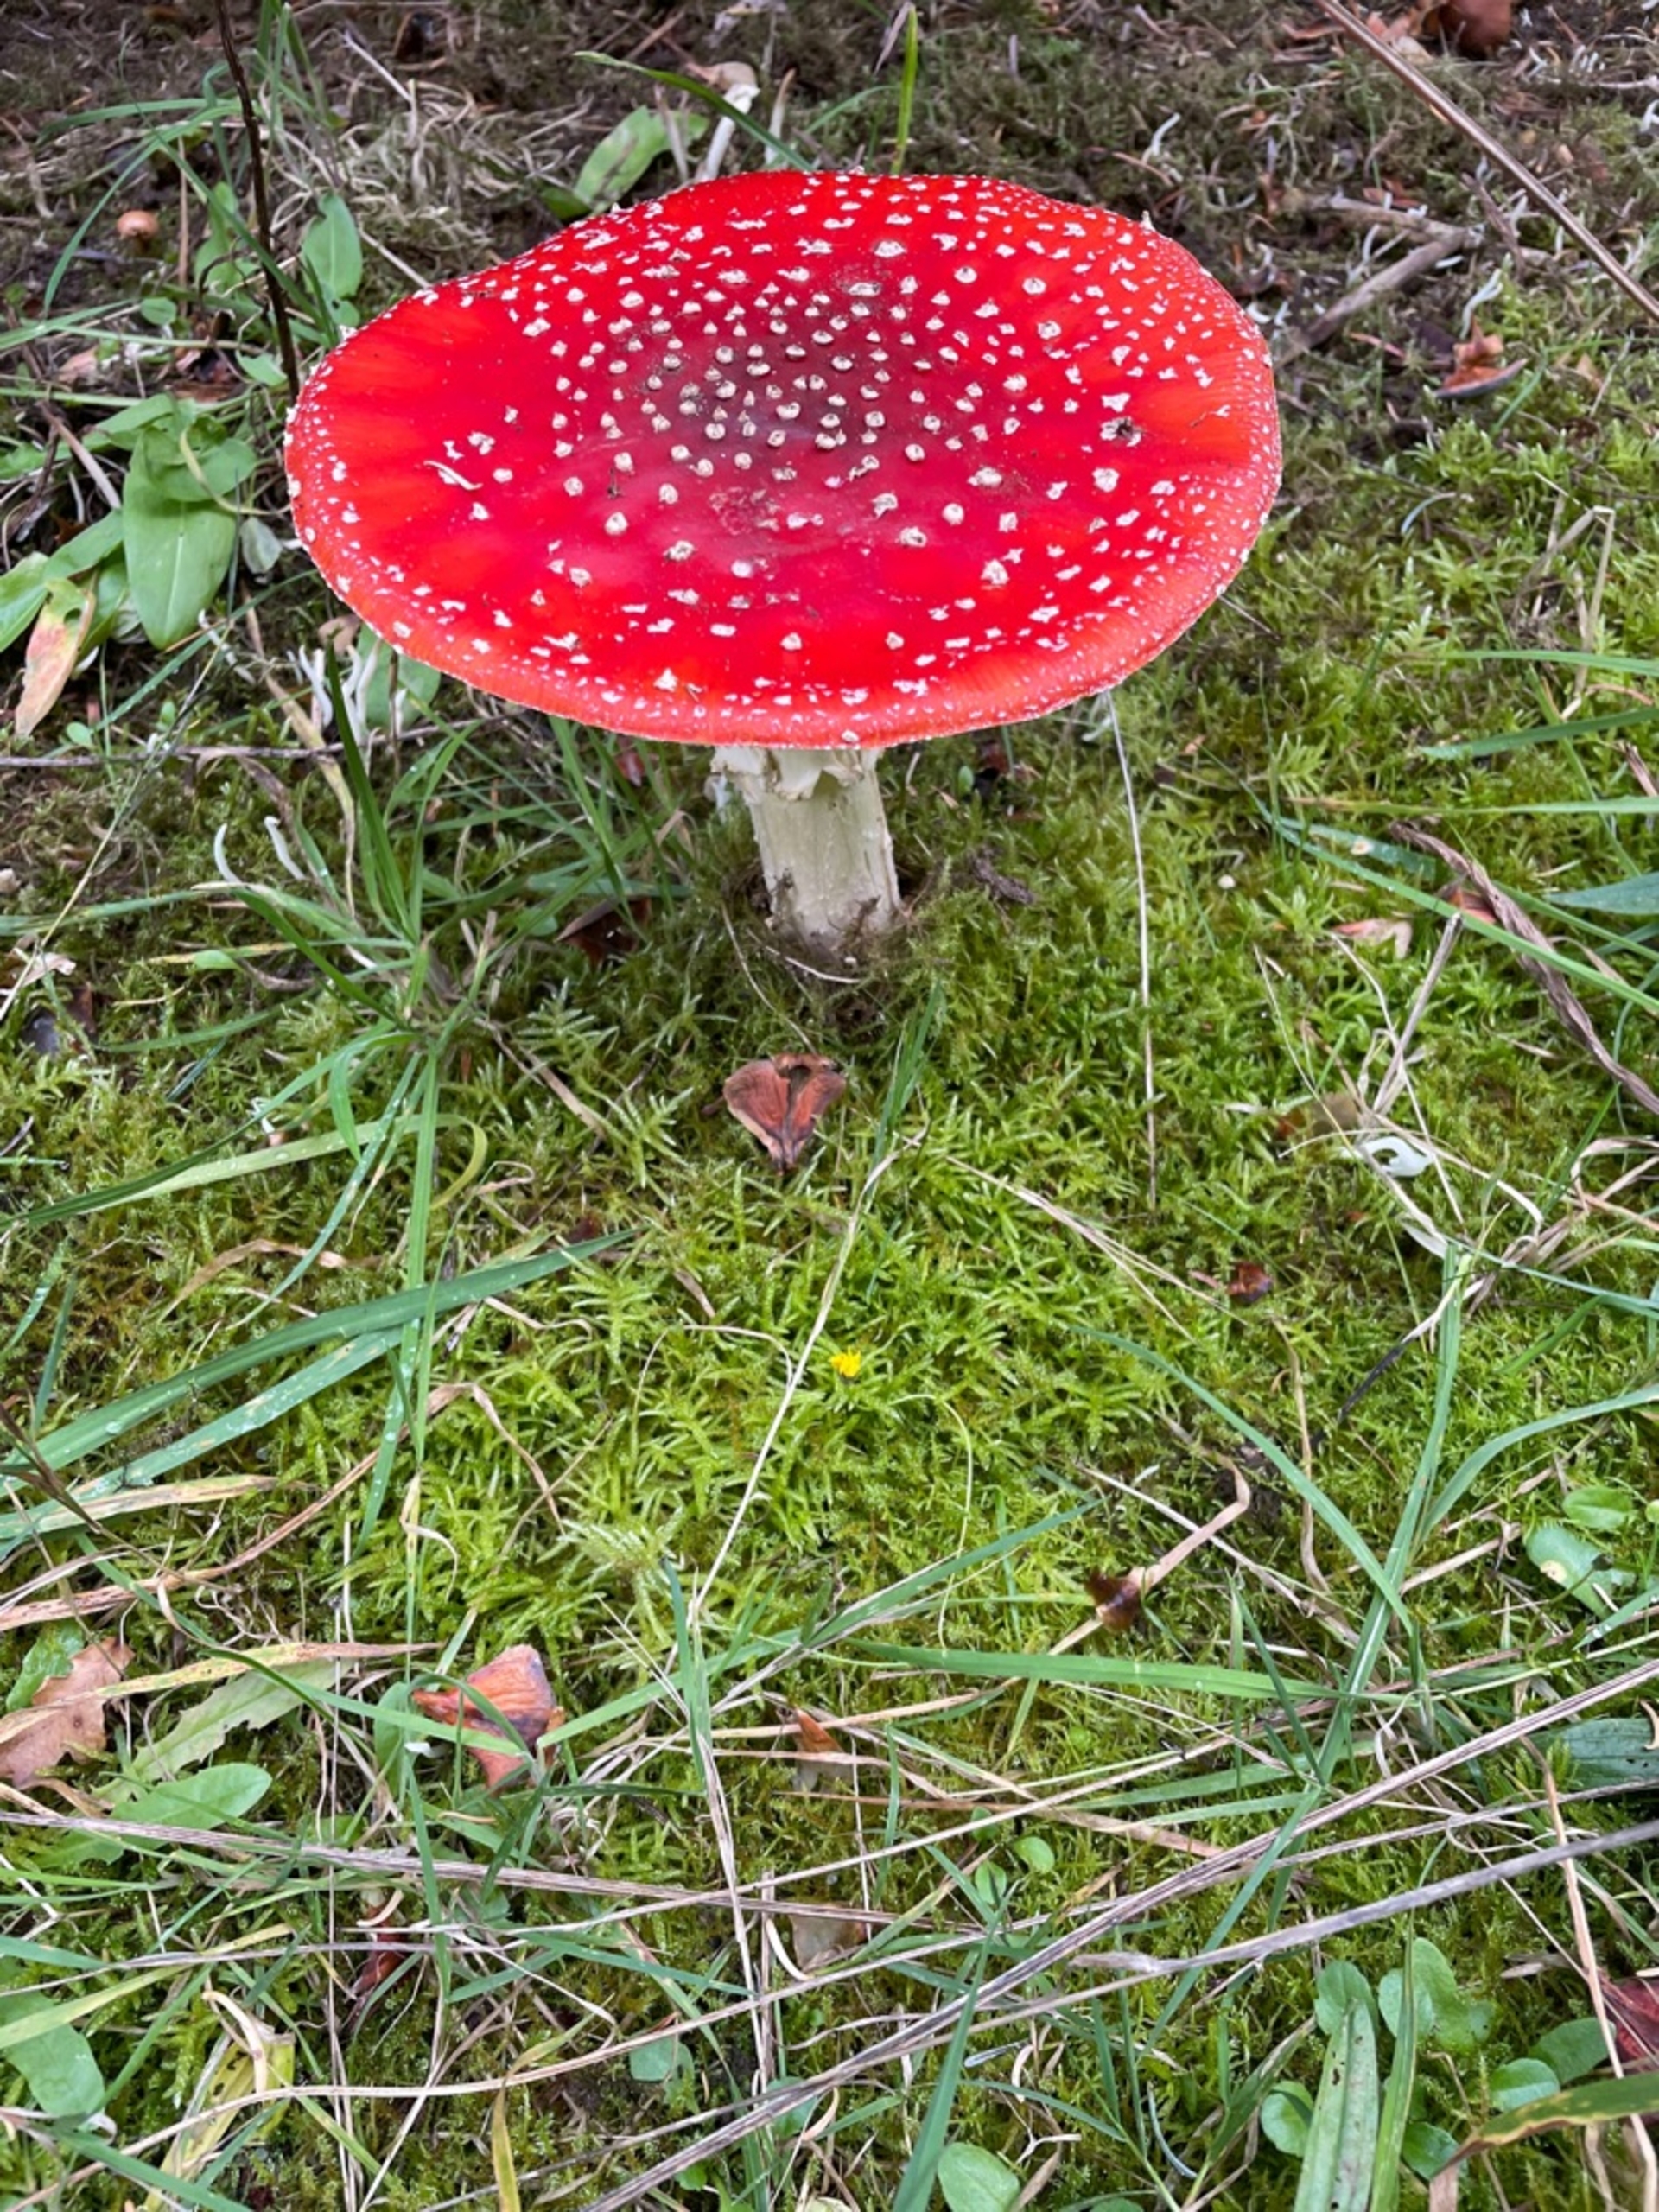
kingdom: Fungi
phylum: Basidiomycota
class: Agaricomycetes
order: Agaricales
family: Amanitaceae
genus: Amanita
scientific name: Amanita muscaria
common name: Rød fluesvamp
